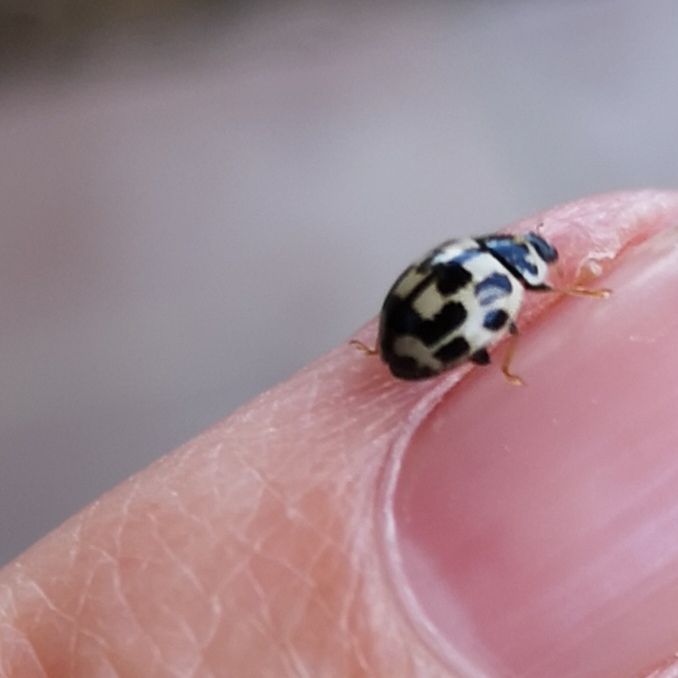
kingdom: Animalia
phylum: Arthropoda
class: Insecta
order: Coleoptera
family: Coccinellidae
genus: Propylaea
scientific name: Propylaea quatuordecimpunctata
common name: Skakbræt
